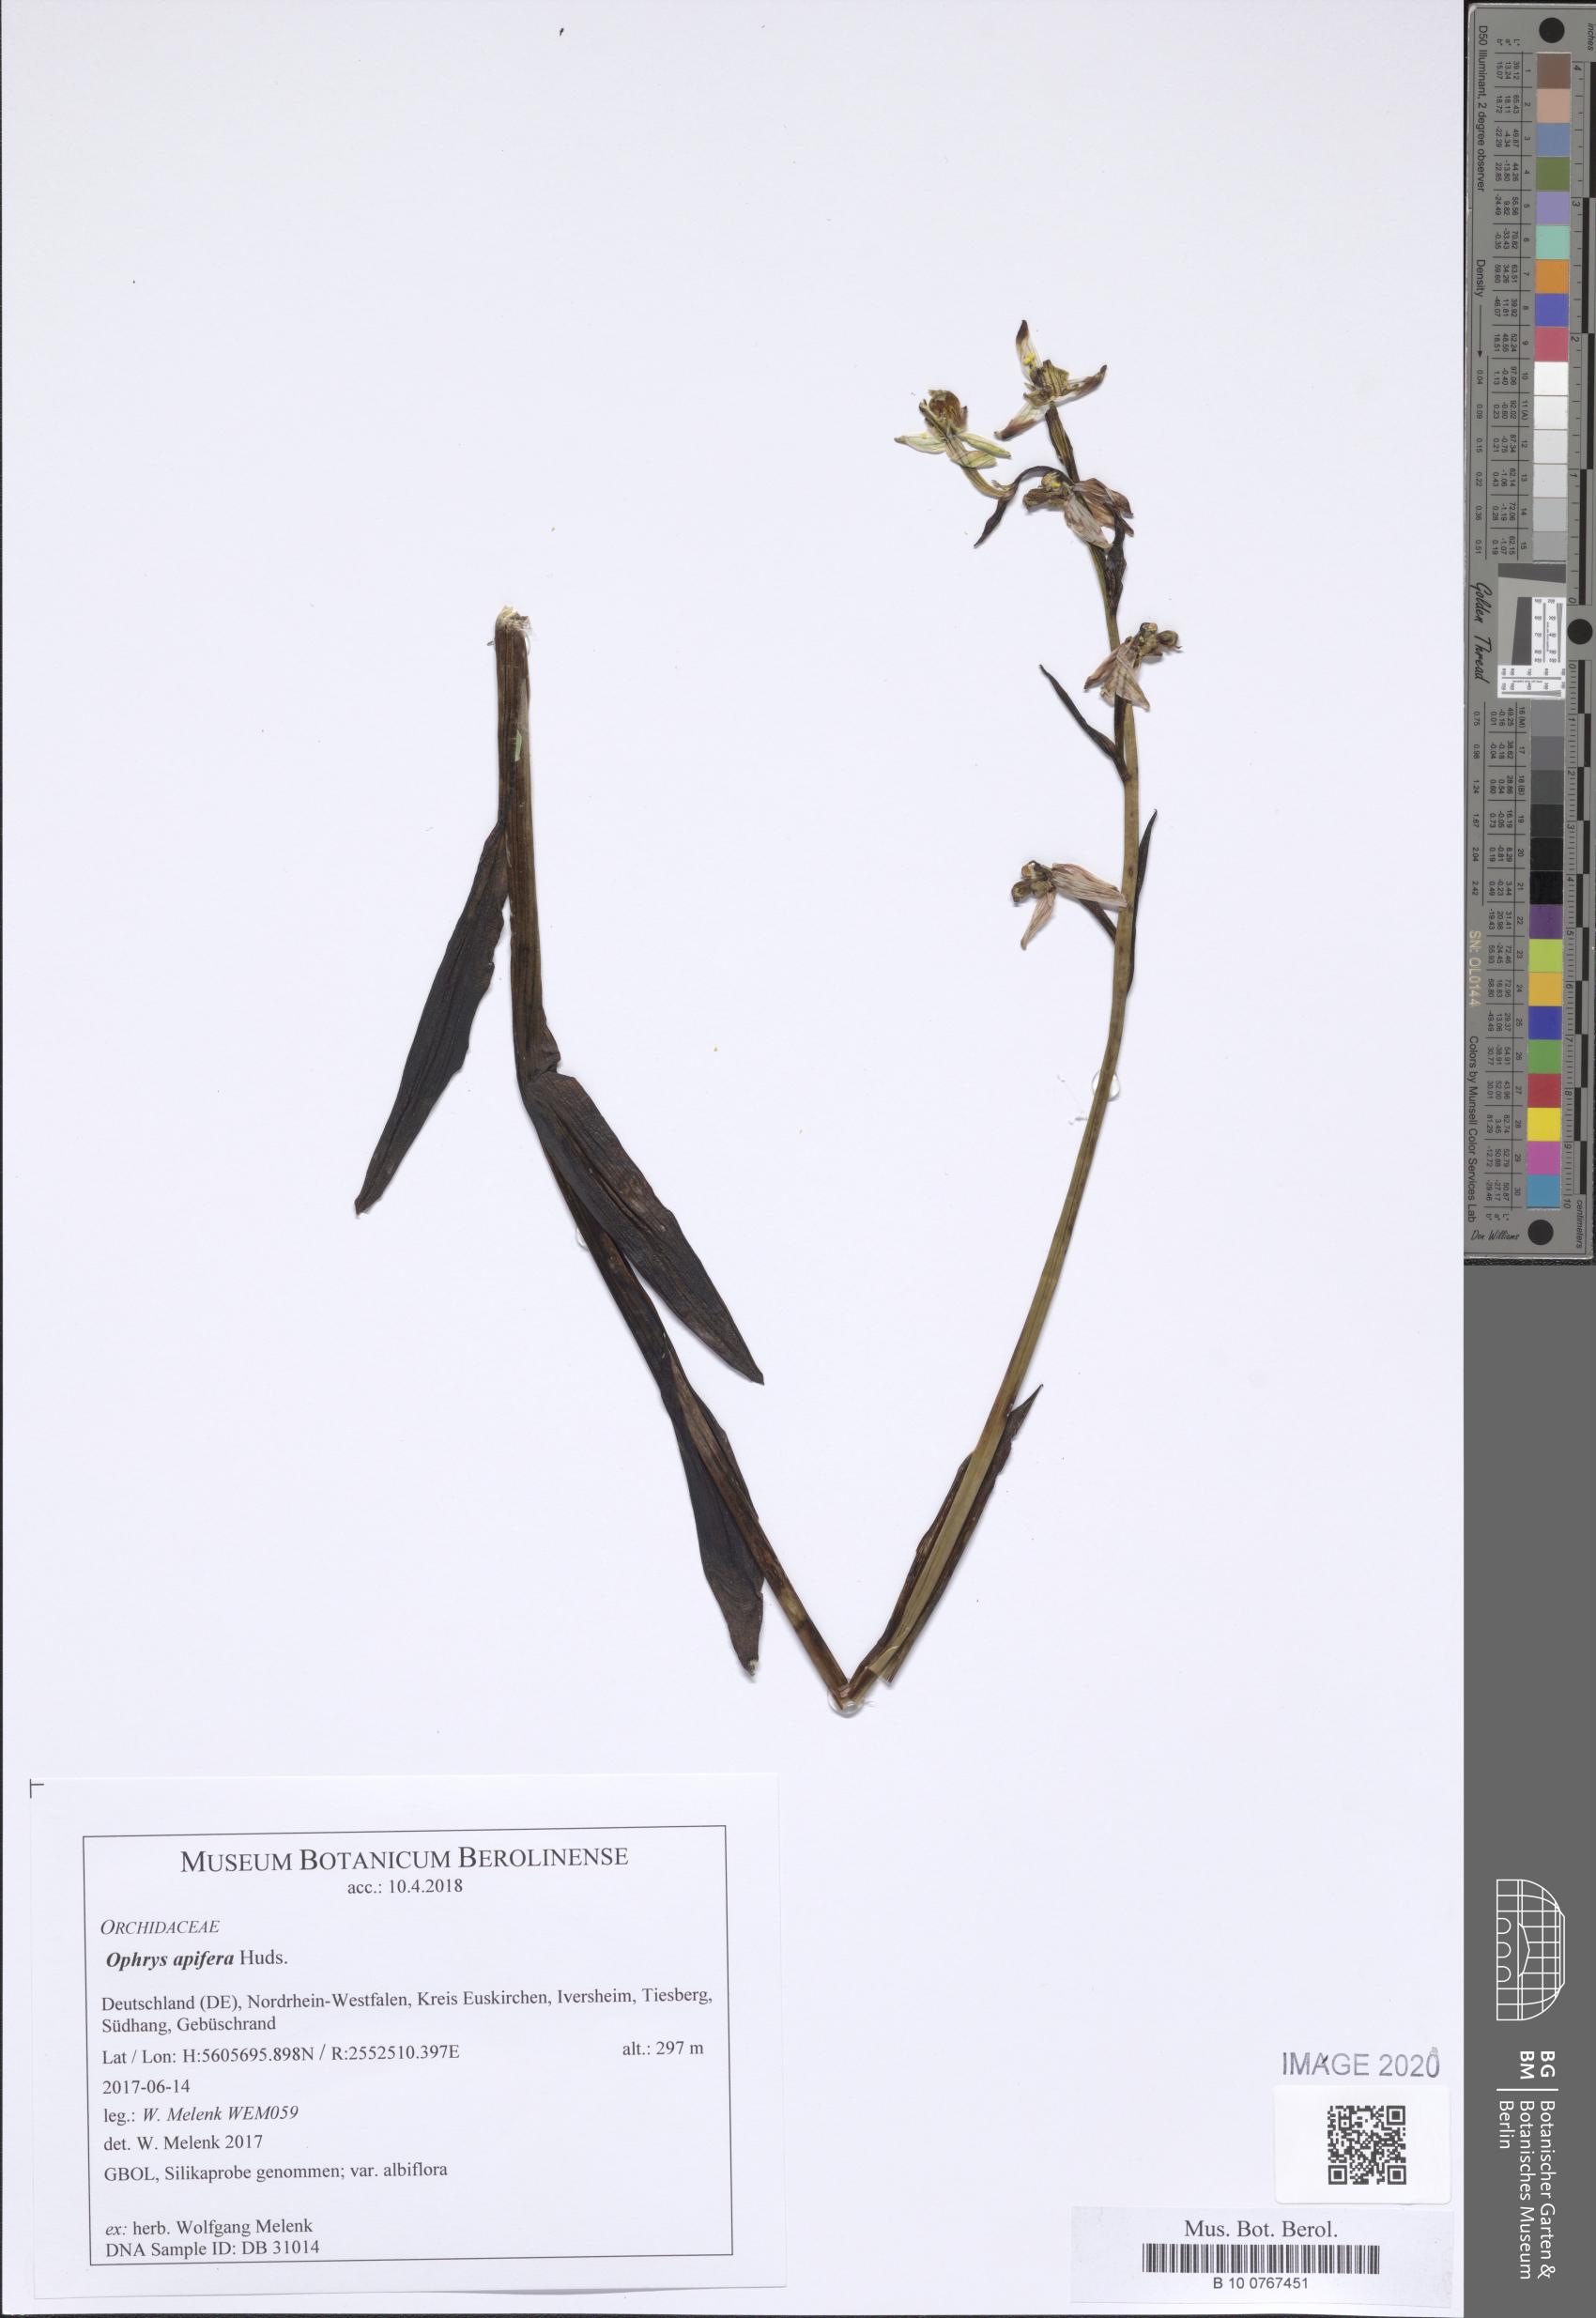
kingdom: Plantae
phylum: Tracheophyta
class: Liliopsida
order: Asparagales
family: Orchidaceae
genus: Ophrys
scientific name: Ophrys apifera
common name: Bee orchid
